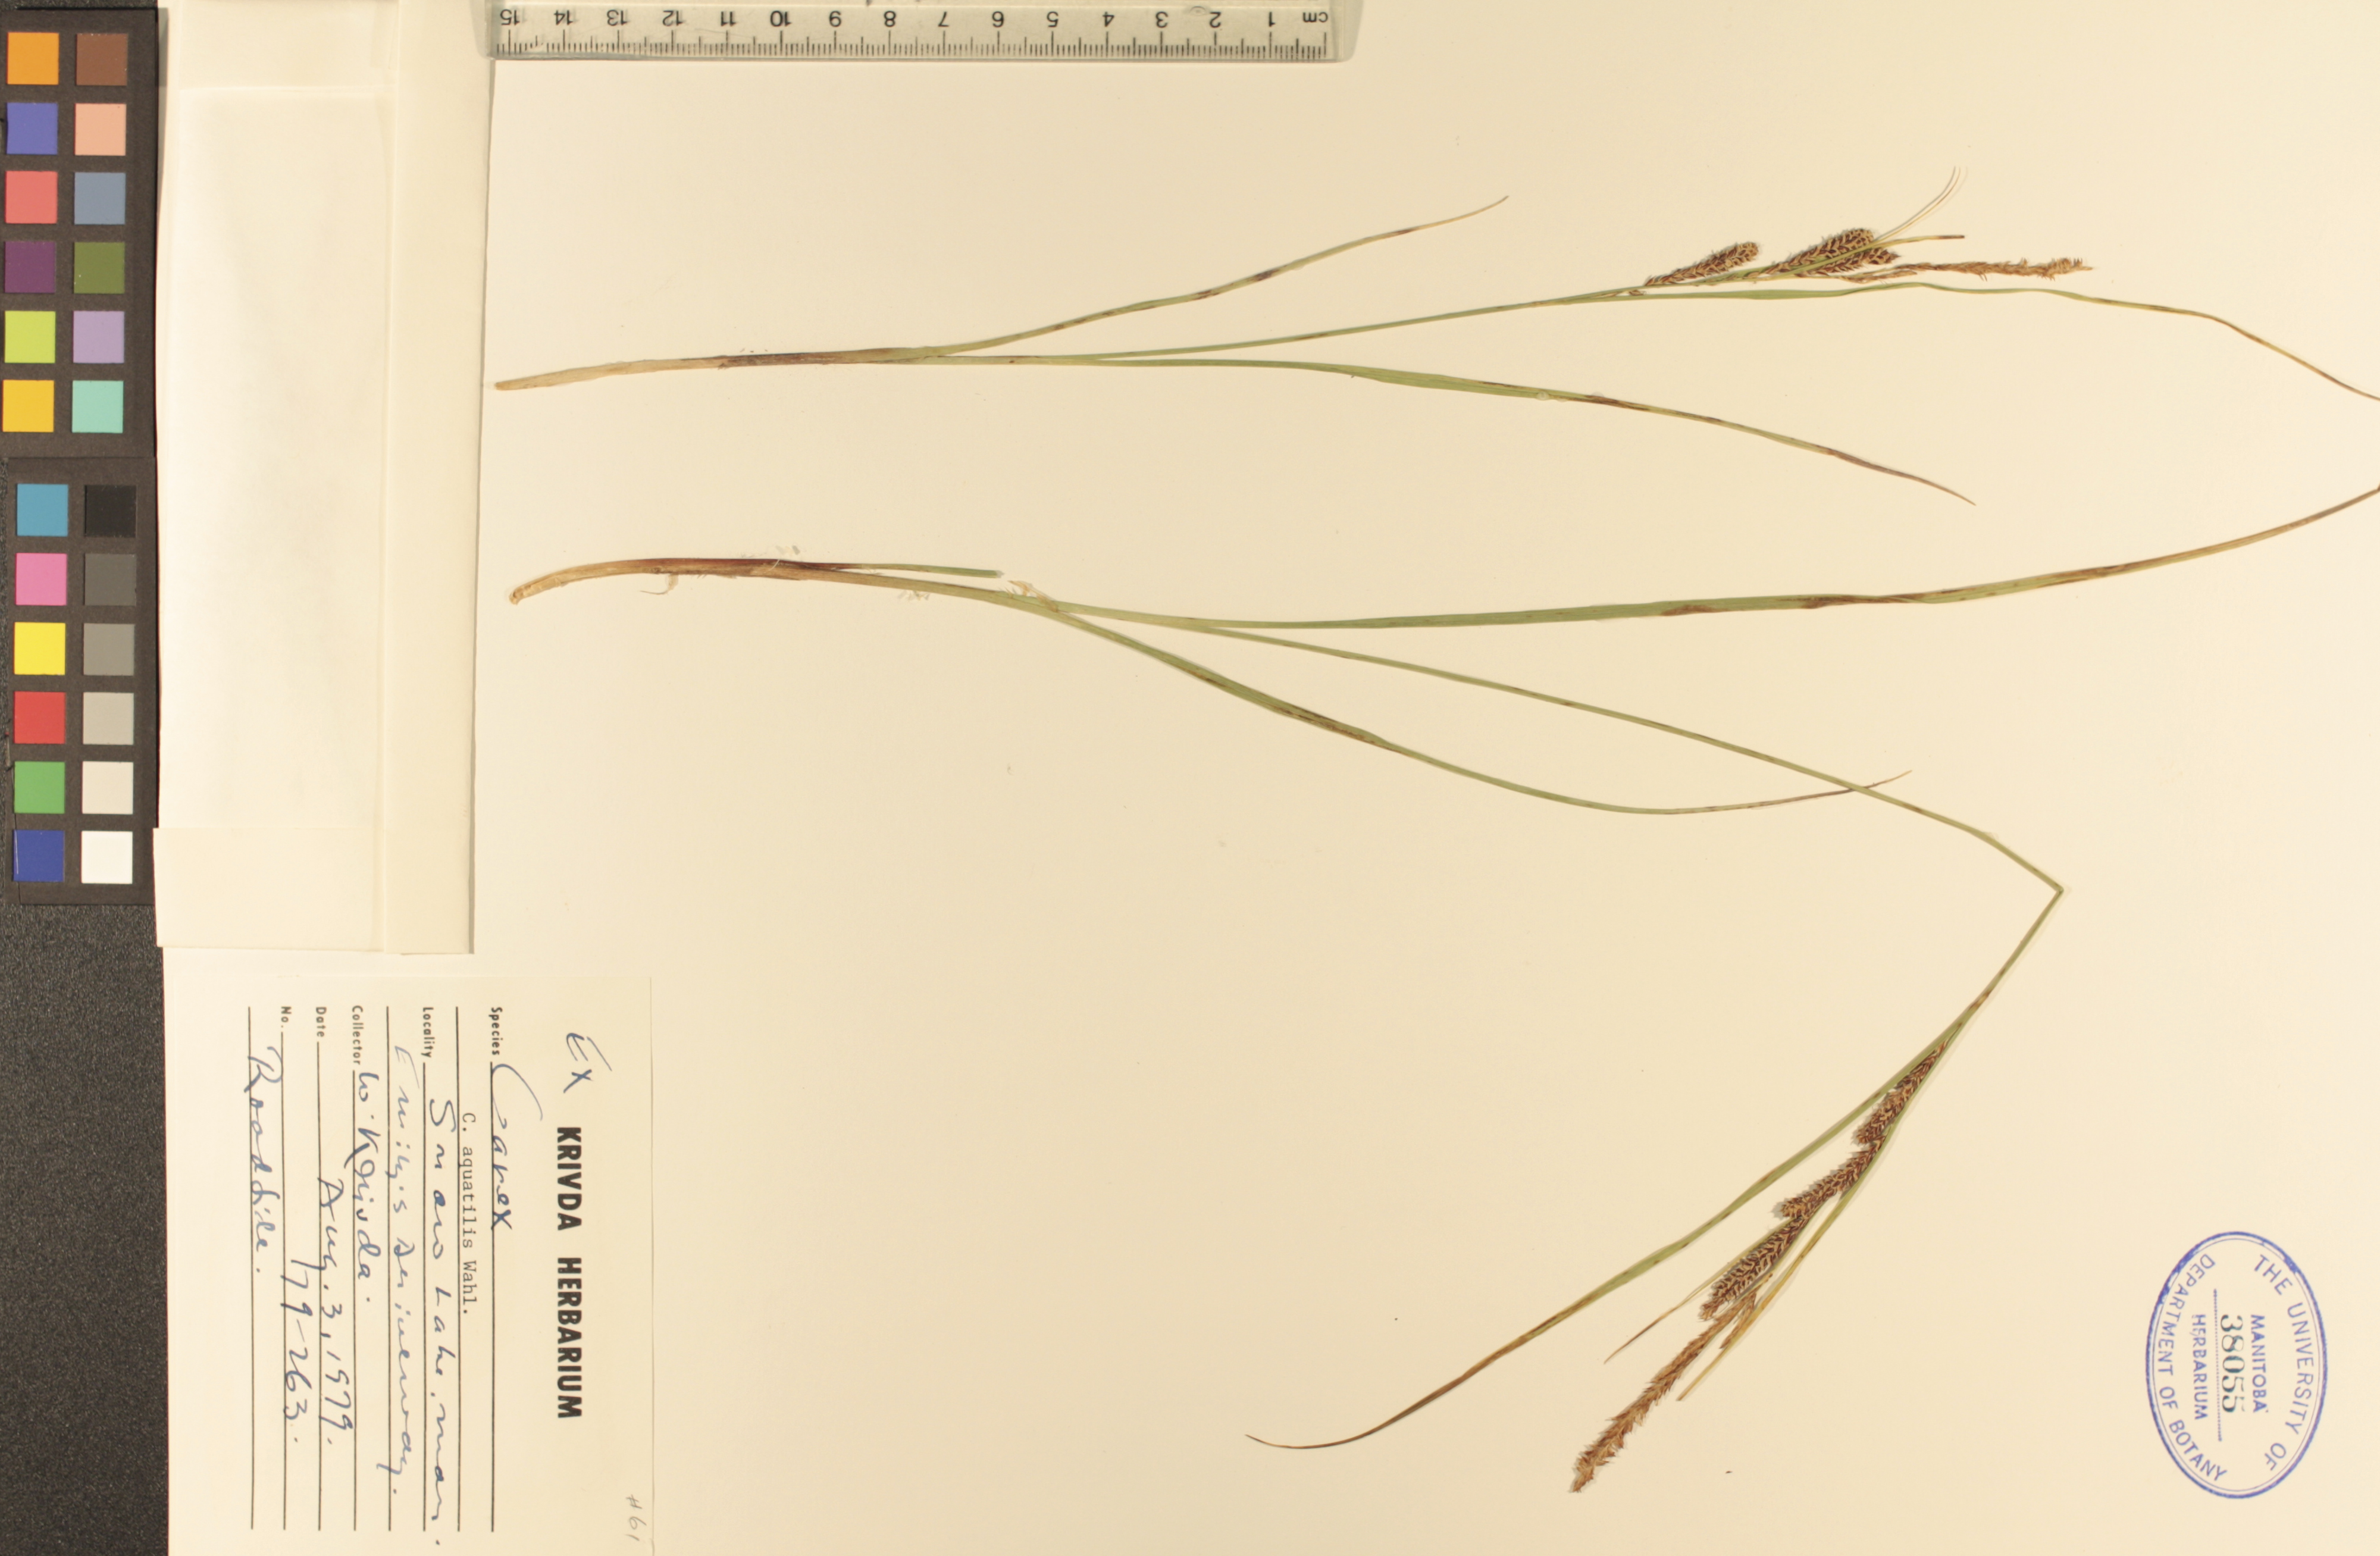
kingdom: Plantae
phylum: Tracheophyta
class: Liliopsida
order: Poales
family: Cyperaceae
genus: Carex
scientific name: Carex aquatilis
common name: Water sedge
